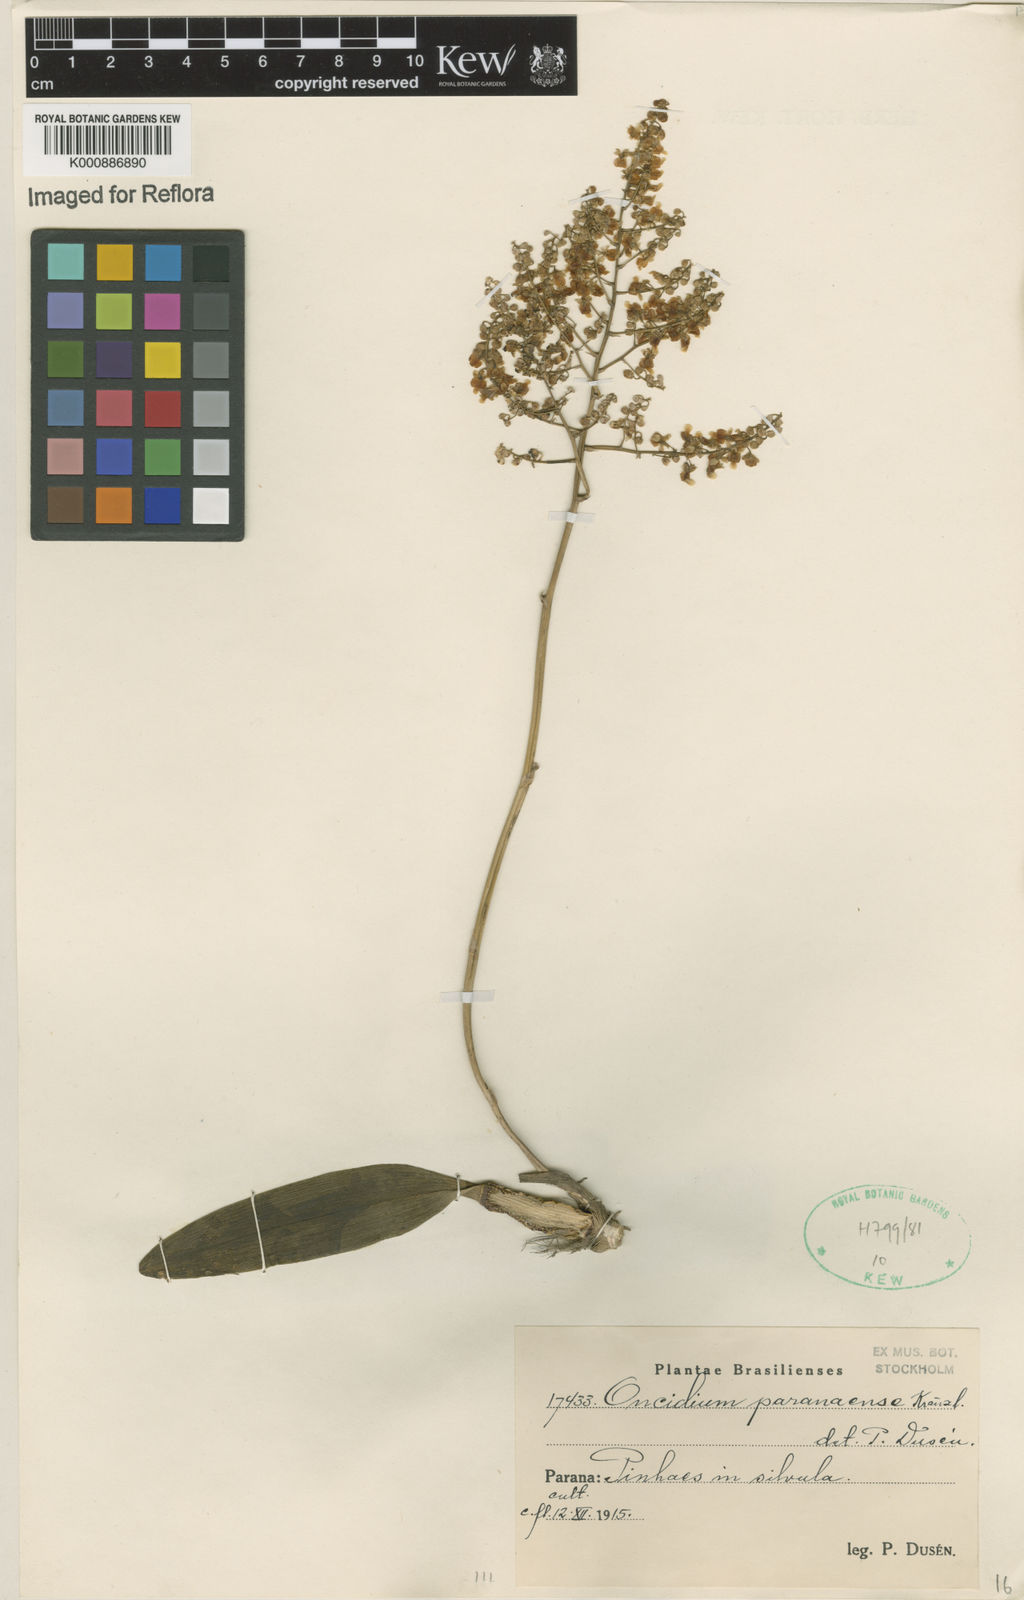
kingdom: Plantae
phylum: Tracheophyta
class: Liliopsida
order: Asparagales
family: Orchidaceae
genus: Gomesa
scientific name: Gomesa paranensoides
